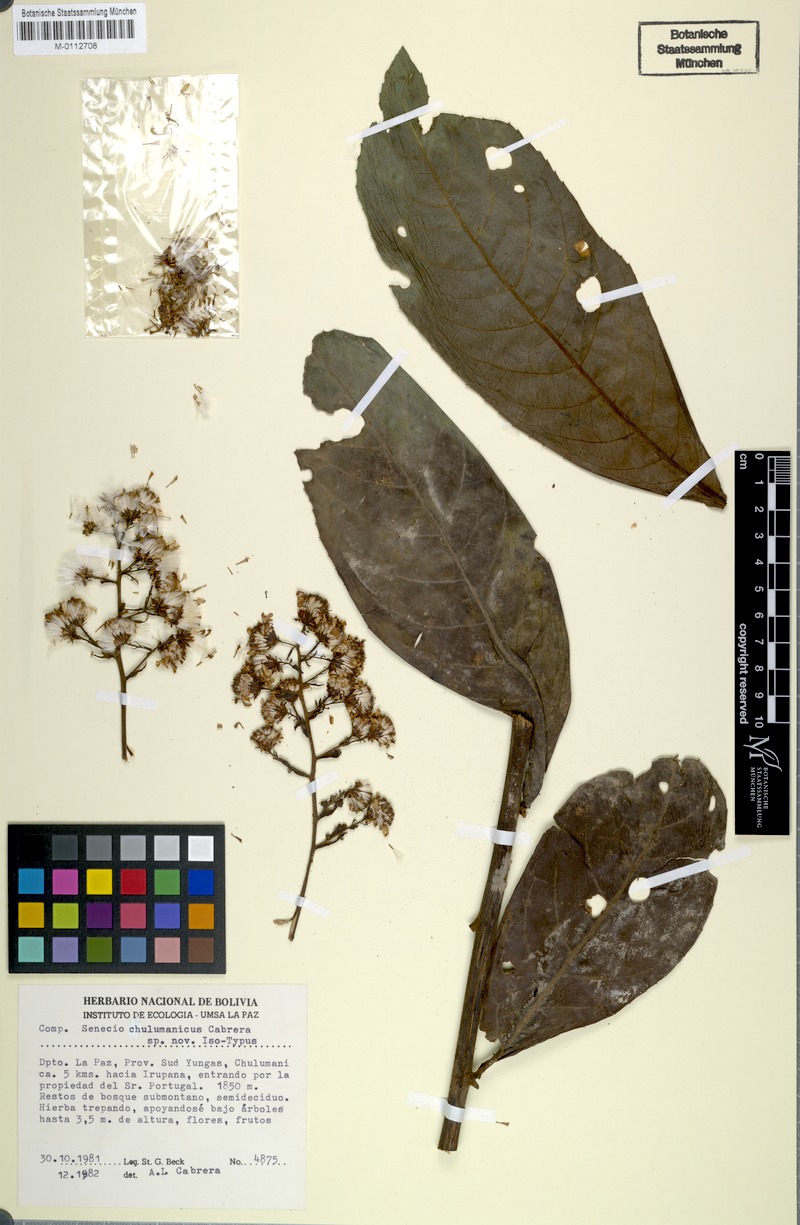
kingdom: Plantae
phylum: Tracheophyta
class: Magnoliopsida
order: Asterales
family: Asteraceae
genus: Dendrophorbium
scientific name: Dendrophorbium chulumanicum
